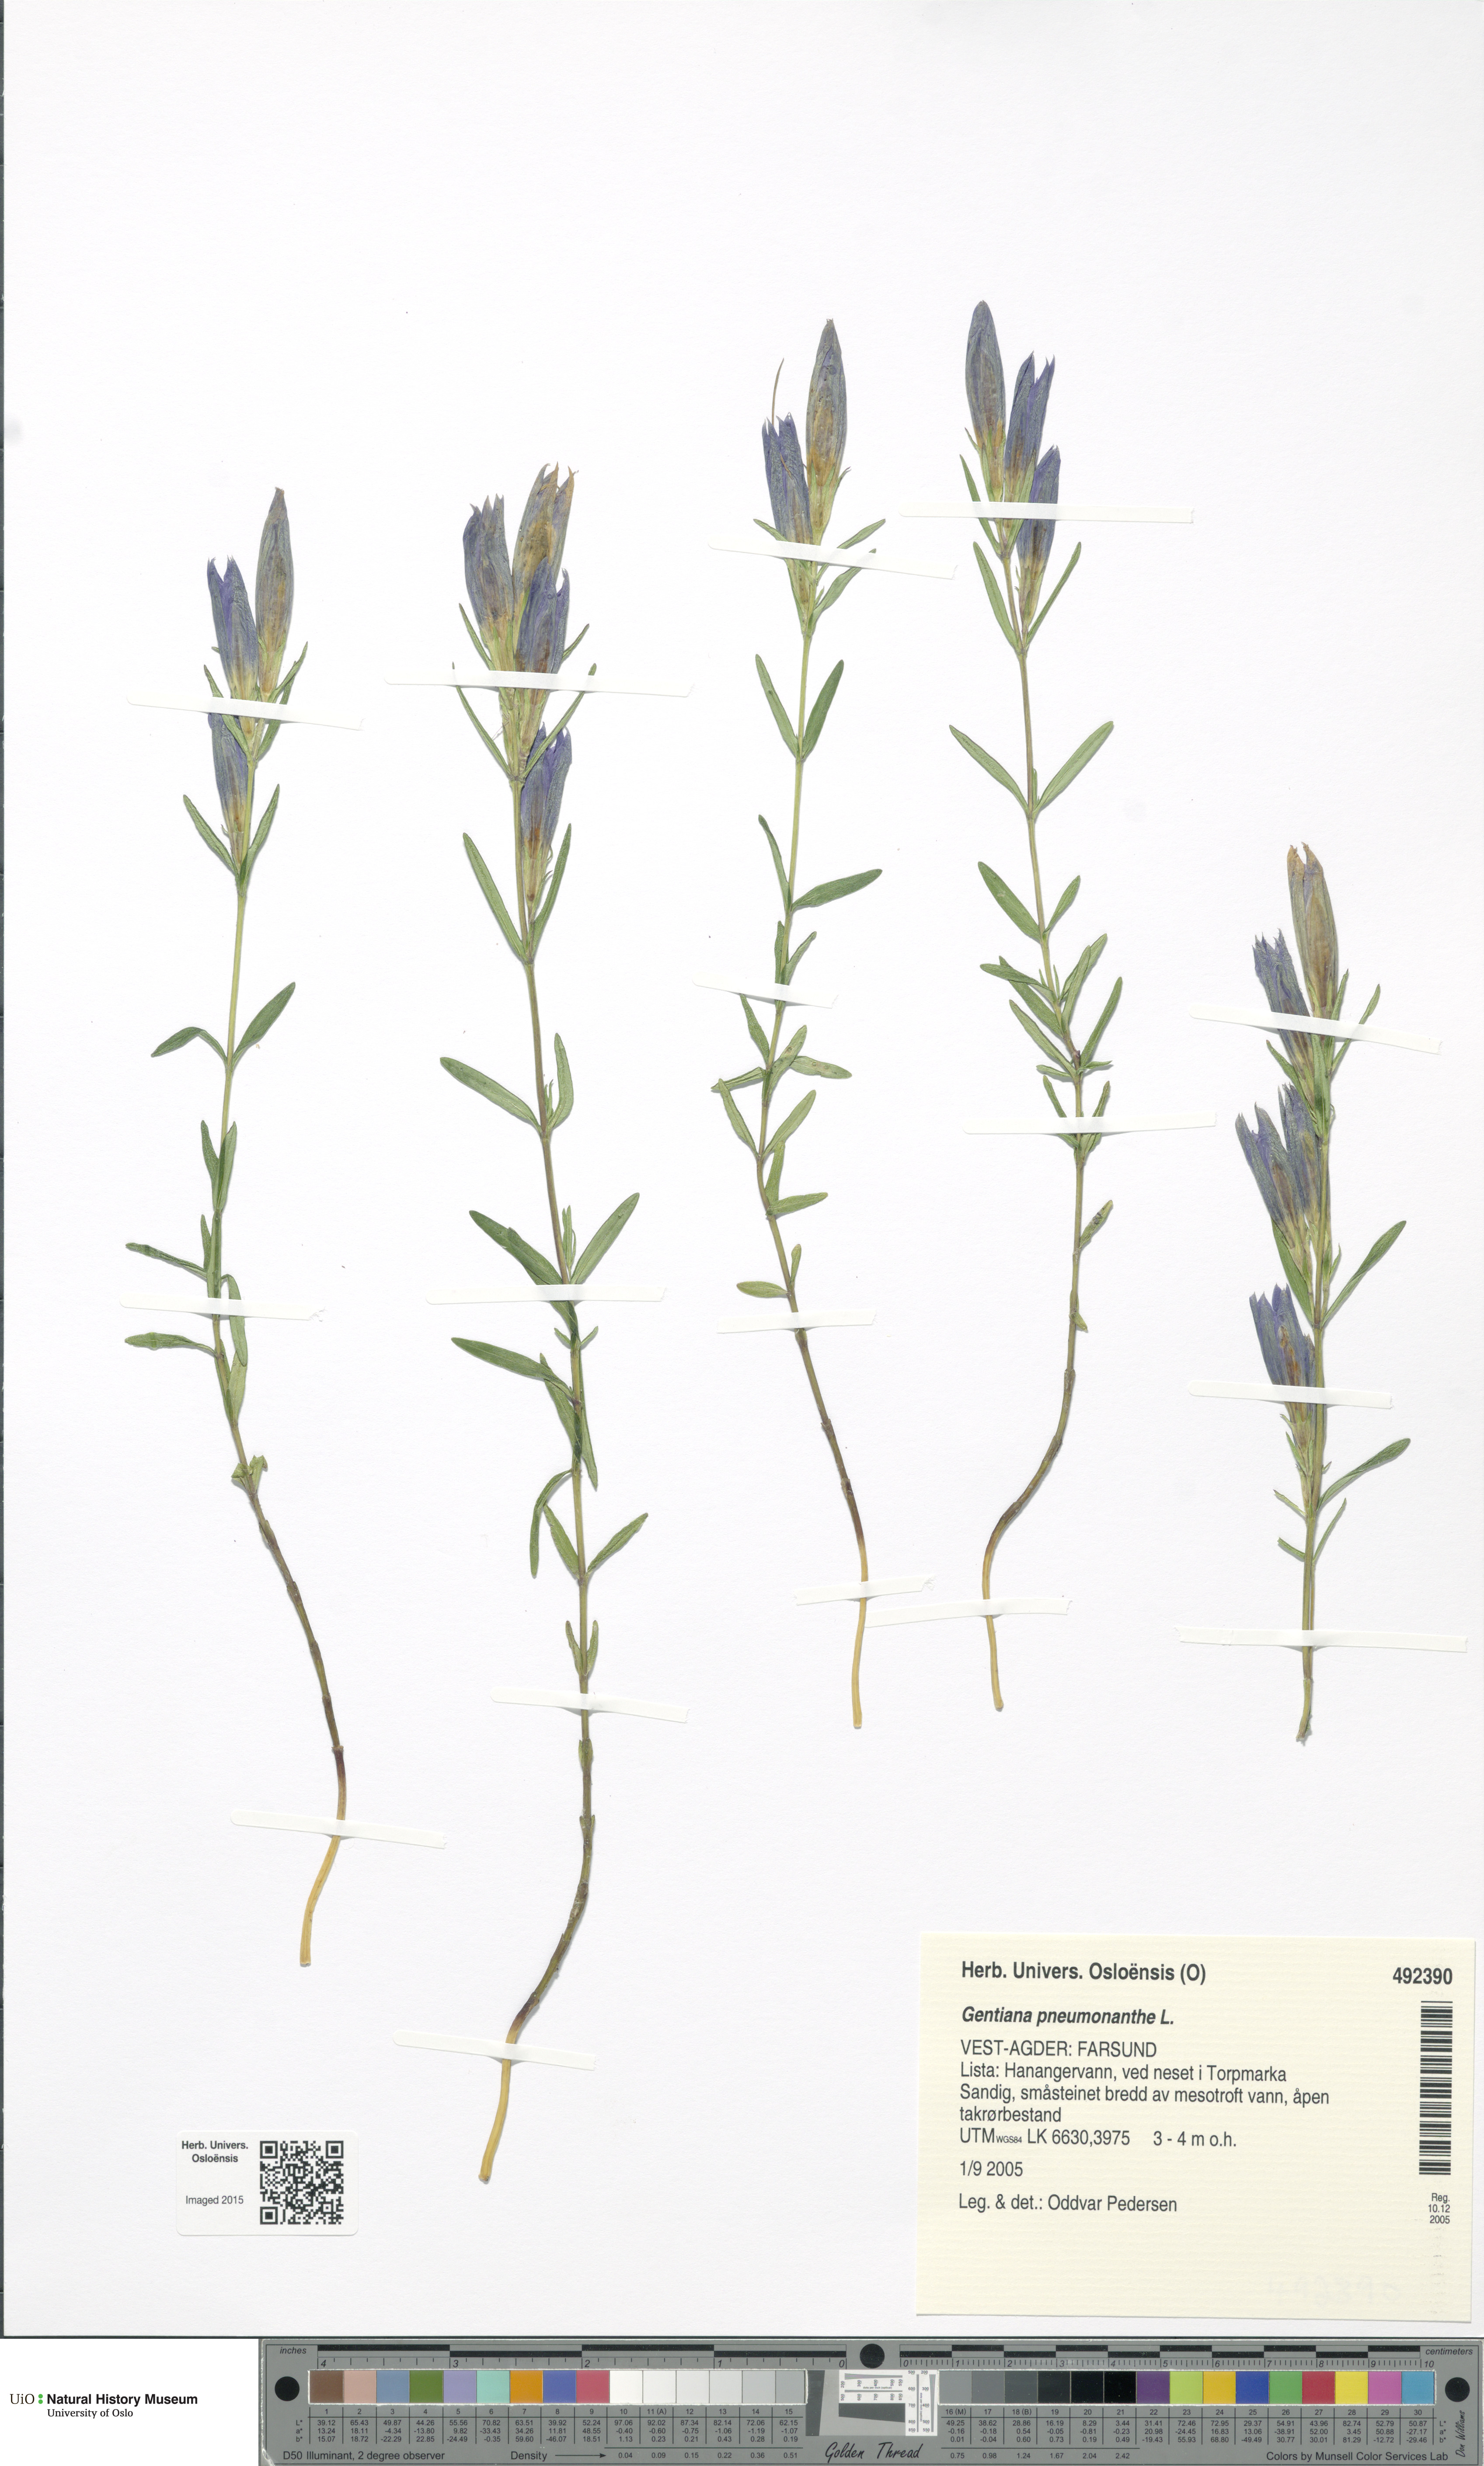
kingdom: Plantae
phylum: Tracheophyta
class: Magnoliopsida
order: Gentianales
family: Gentianaceae
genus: Gentiana
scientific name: Gentiana pneumonanthe
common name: Marsh gentian
